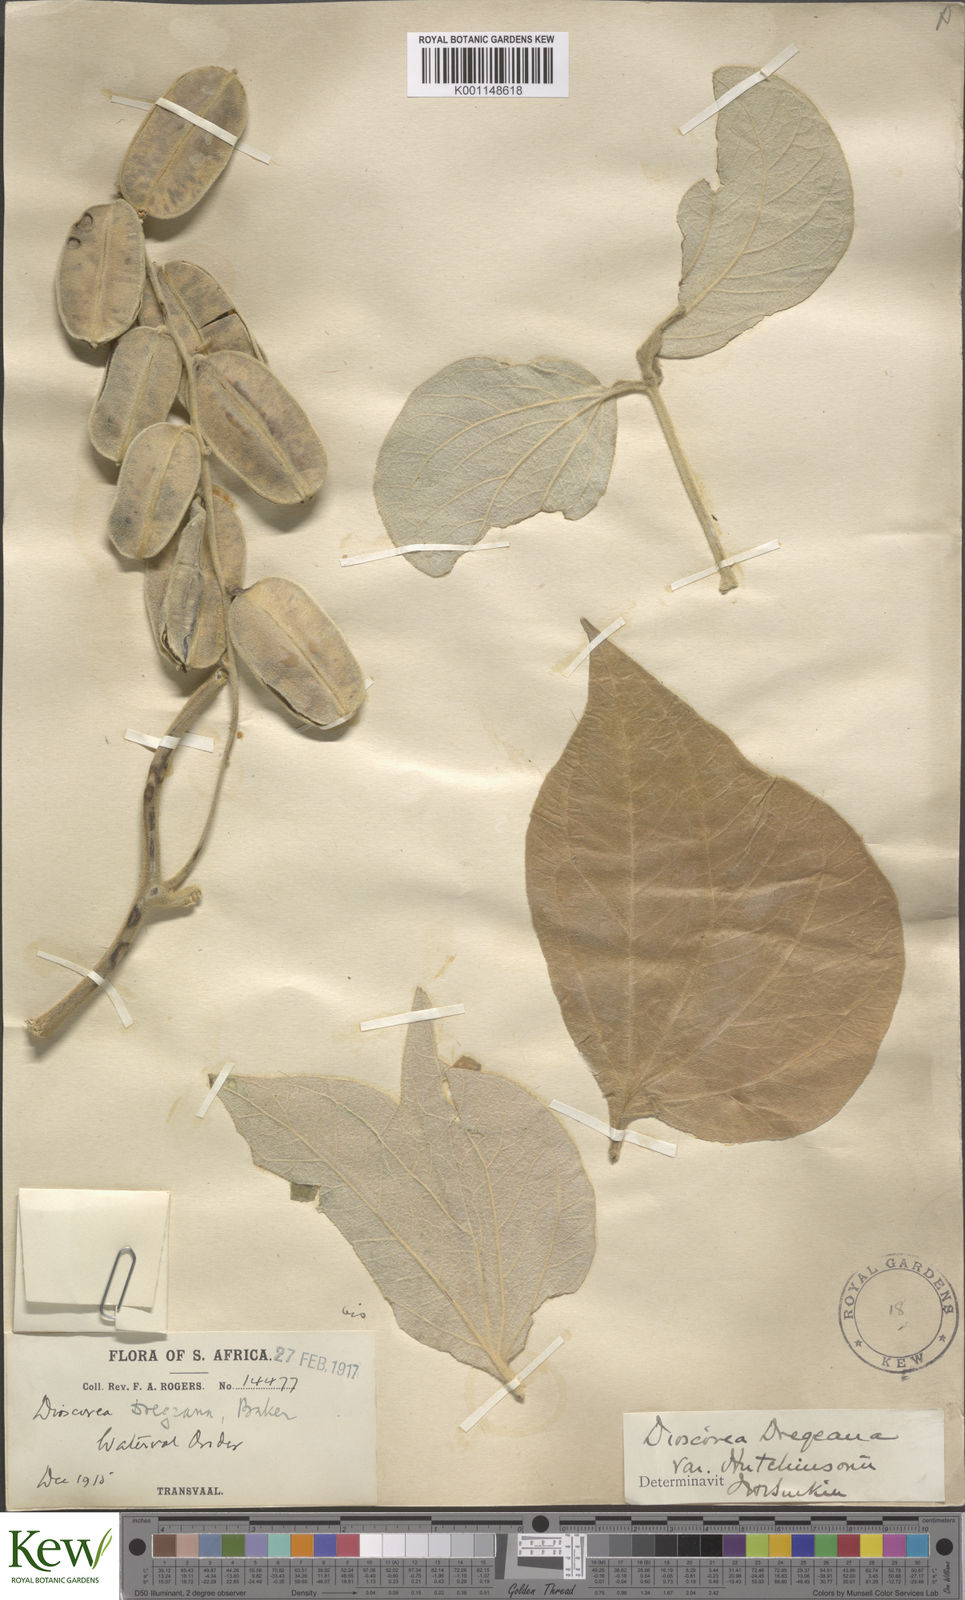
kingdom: Plantae
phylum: Tracheophyta
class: Liliopsida
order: Dioscoreales
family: Dioscoreaceae
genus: Dioscorea
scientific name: Dioscorea dregeana
